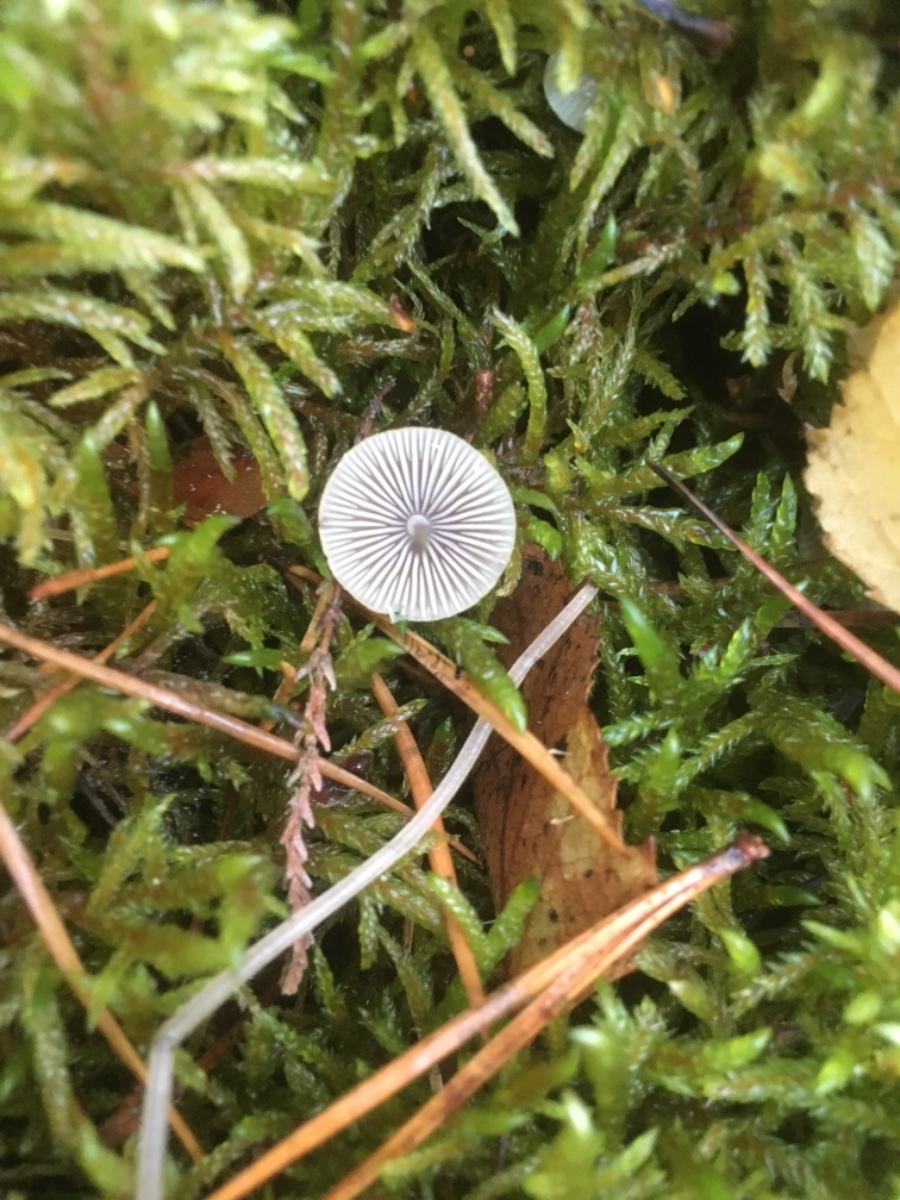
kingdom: Fungi
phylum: Basidiomycota
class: Agaricomycetes
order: Agaricales
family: Mycenaceae
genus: Mycena
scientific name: Mycena
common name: huesvamp
